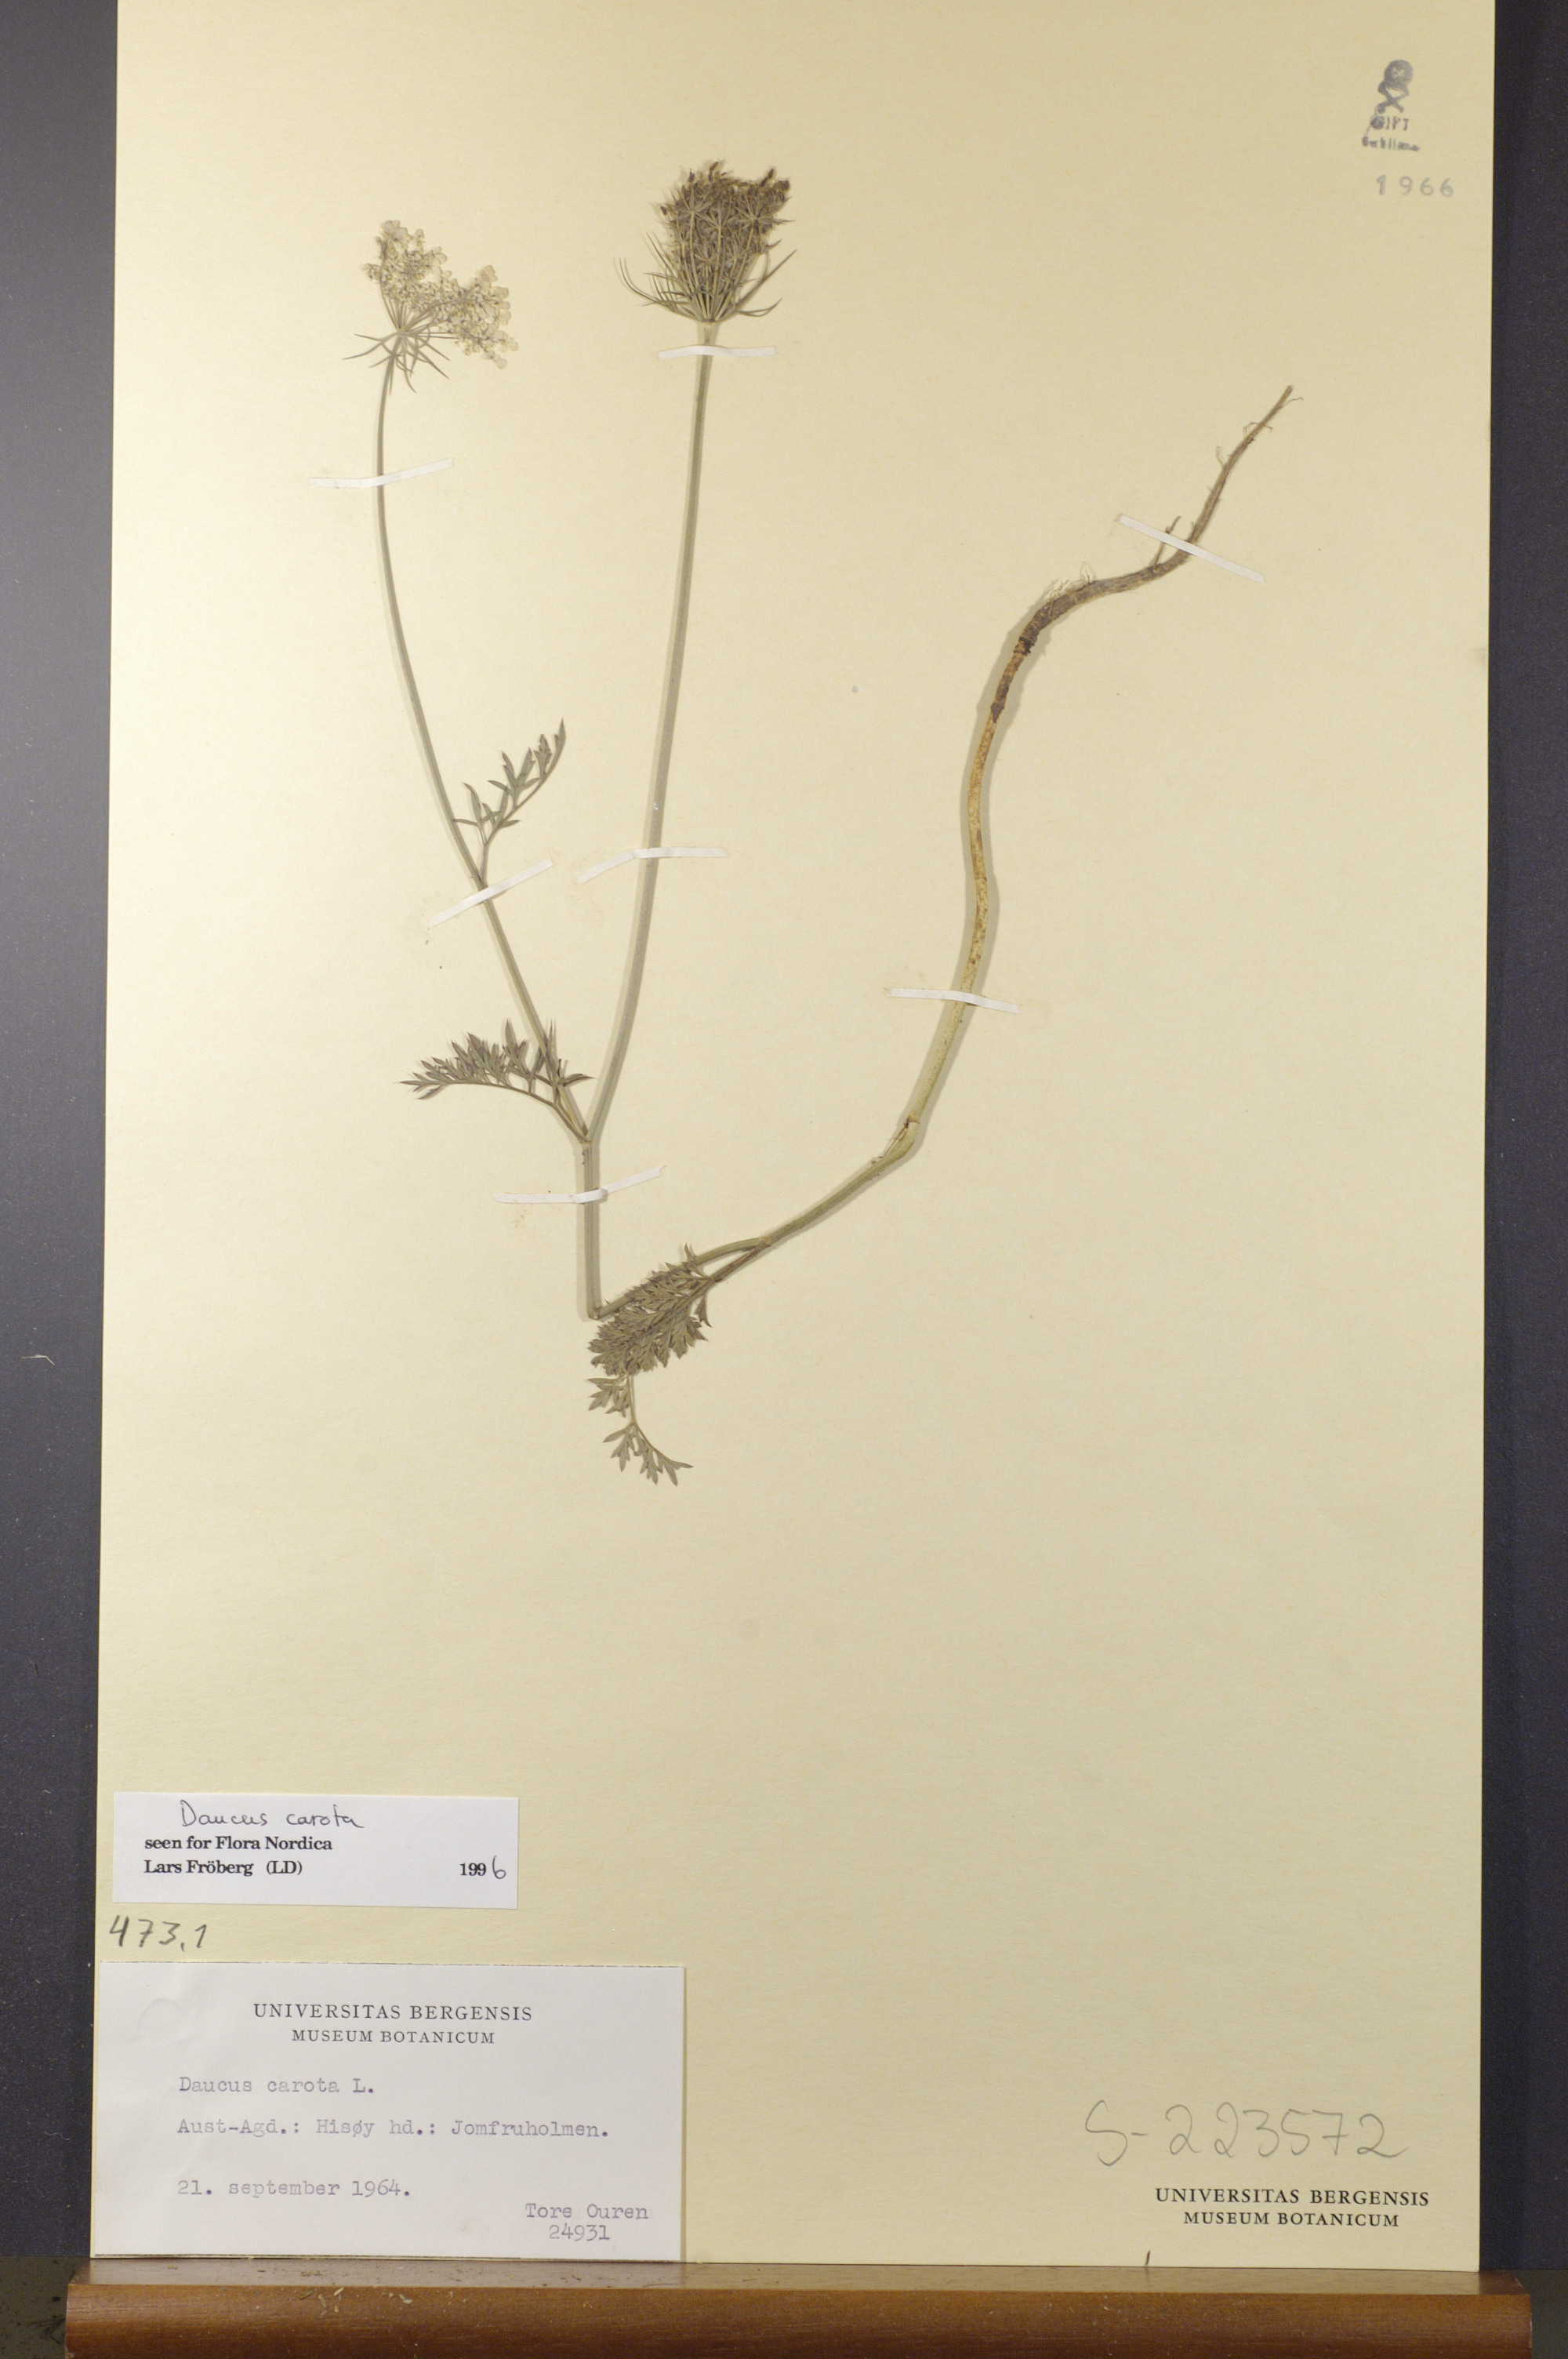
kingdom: Plantae
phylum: Tracheophyta
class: Magnoliopsida
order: Apiales
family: Apiaceae
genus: Daucus
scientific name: Daucus carota
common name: Wild carrot
